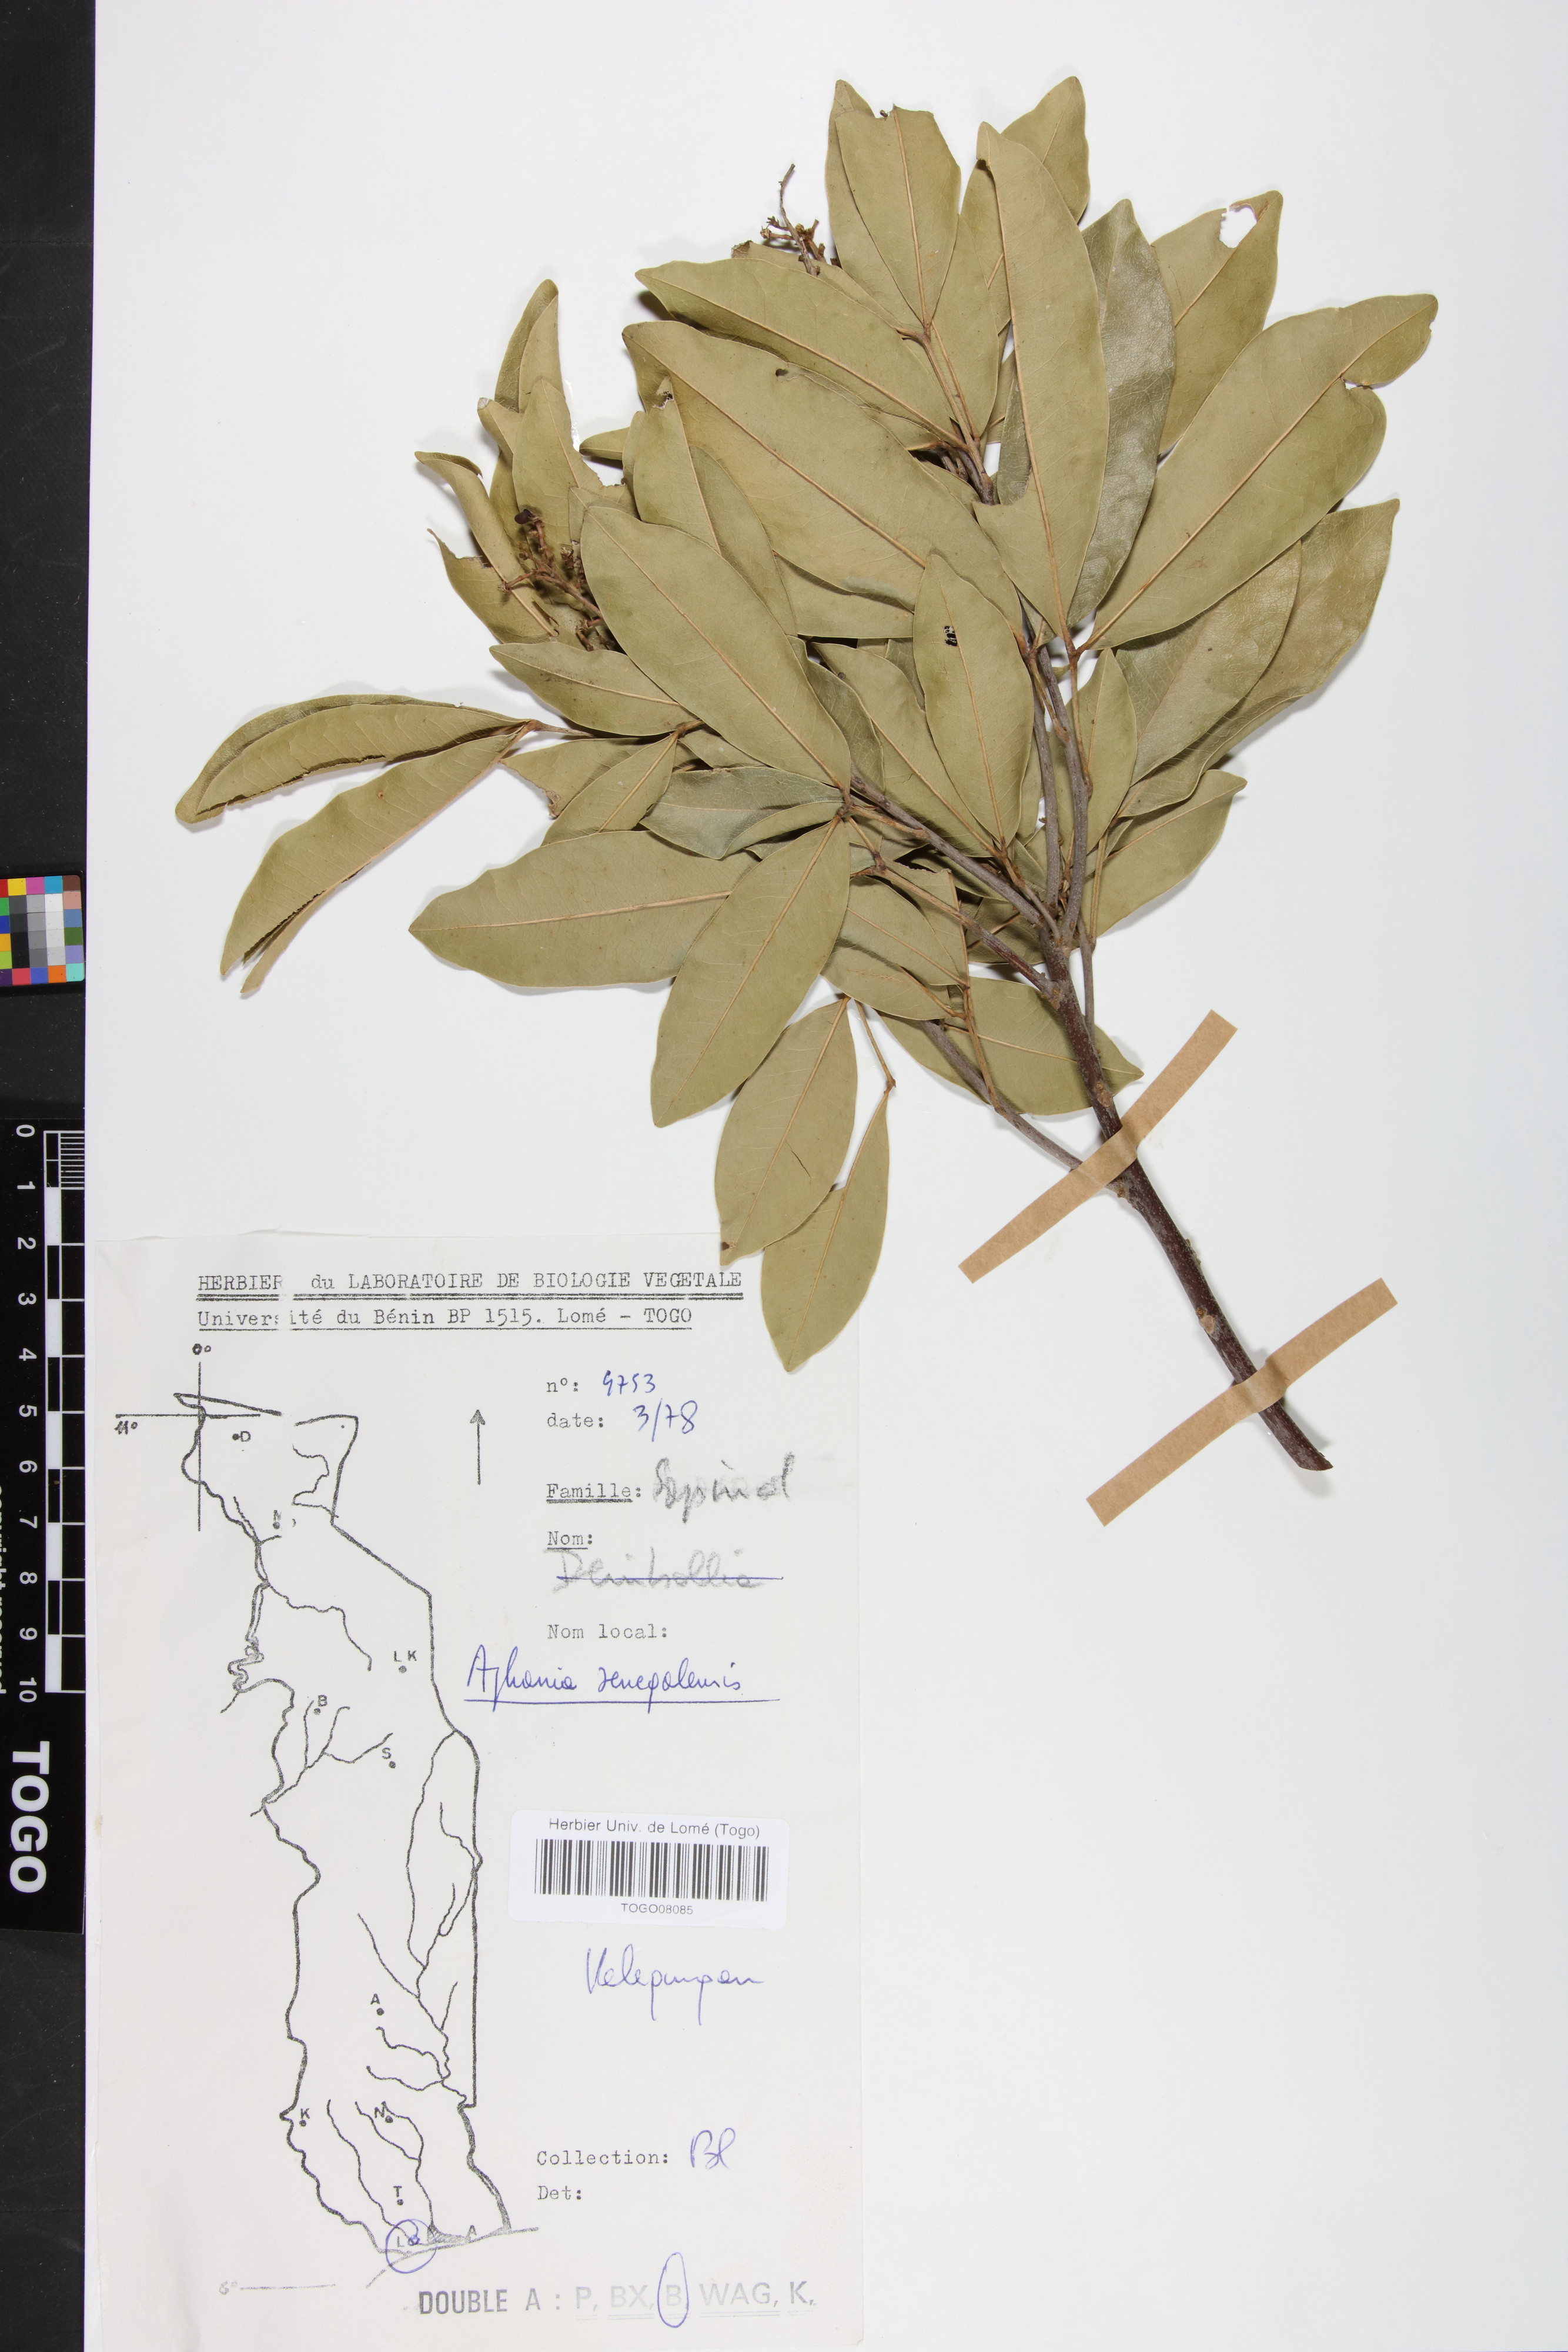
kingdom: Plantae
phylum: Tracheophyta
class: Magnoliopsida
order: Sapindales
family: Sapindaceae
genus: Lepisanthes
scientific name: Lepisanthes senegalensis
